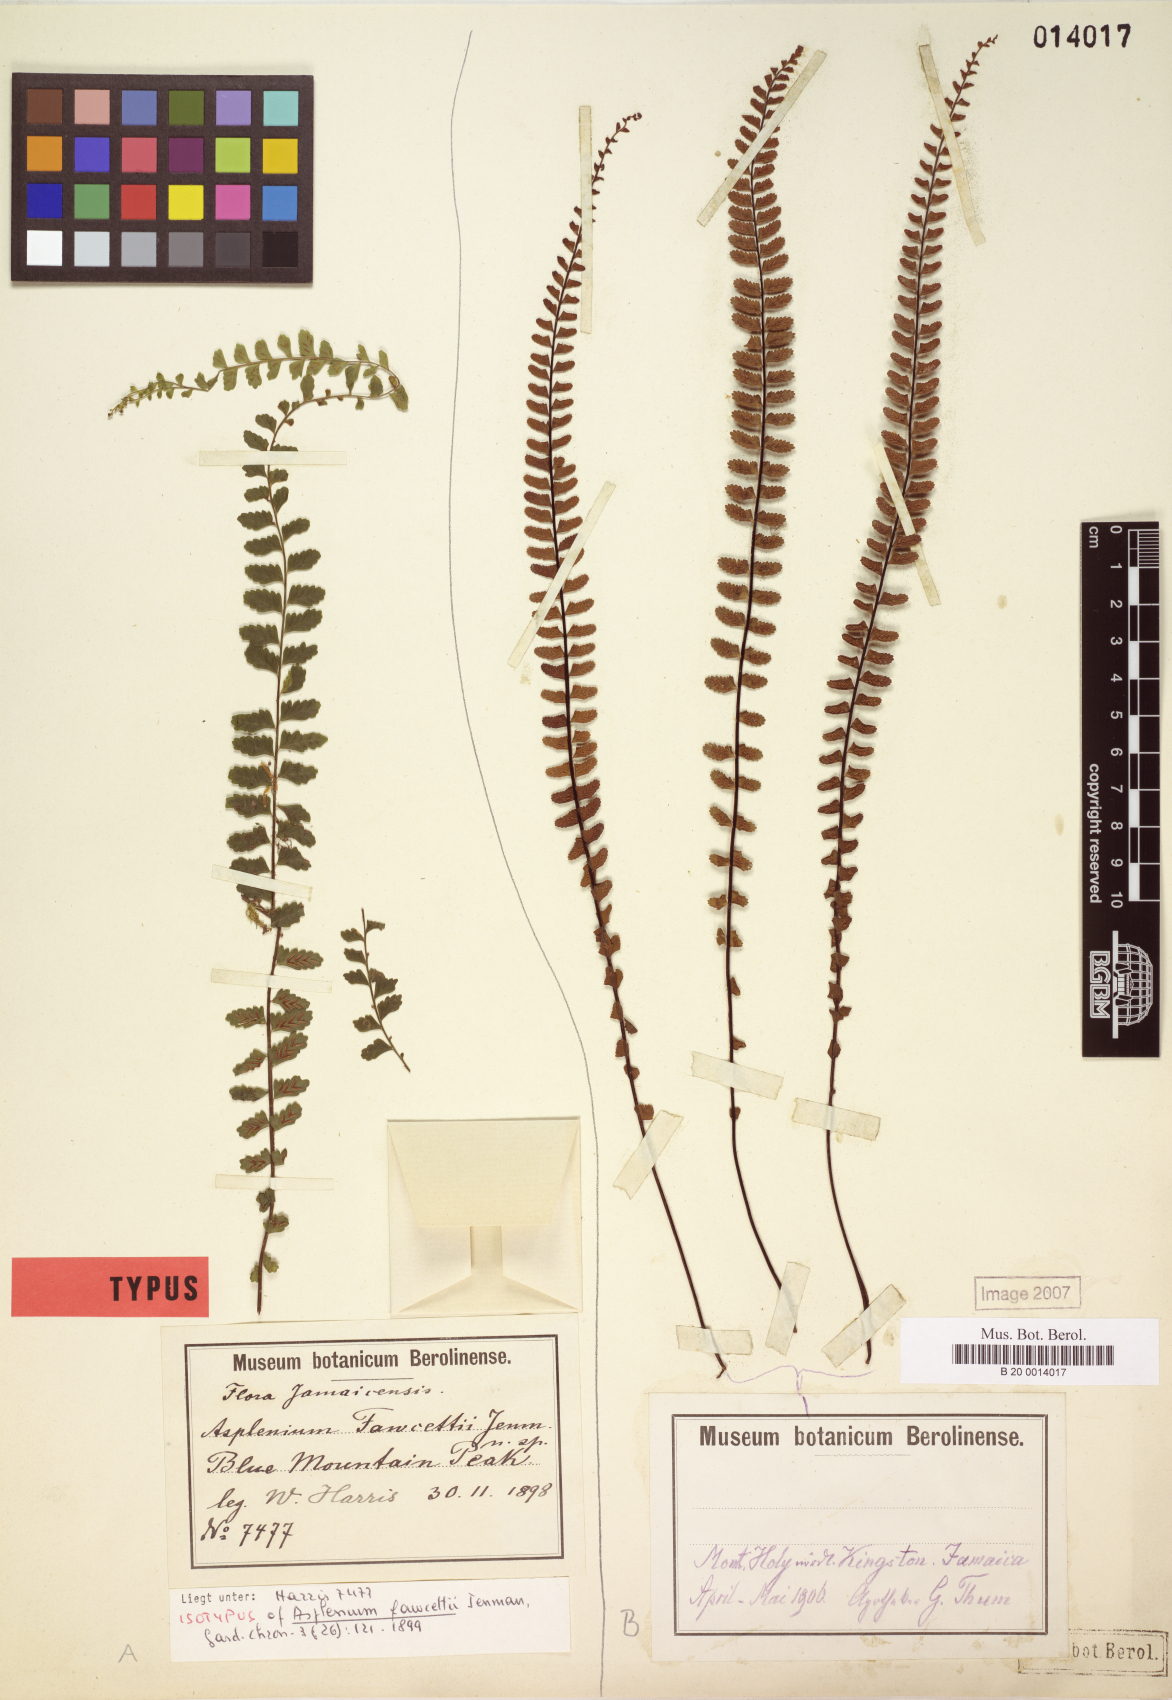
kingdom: Plantae
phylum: Tracheophyta
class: Polypodiopsida
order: Polypodiales
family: Aspleniaceae
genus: Asplenium
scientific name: Asplenium fawcettii
